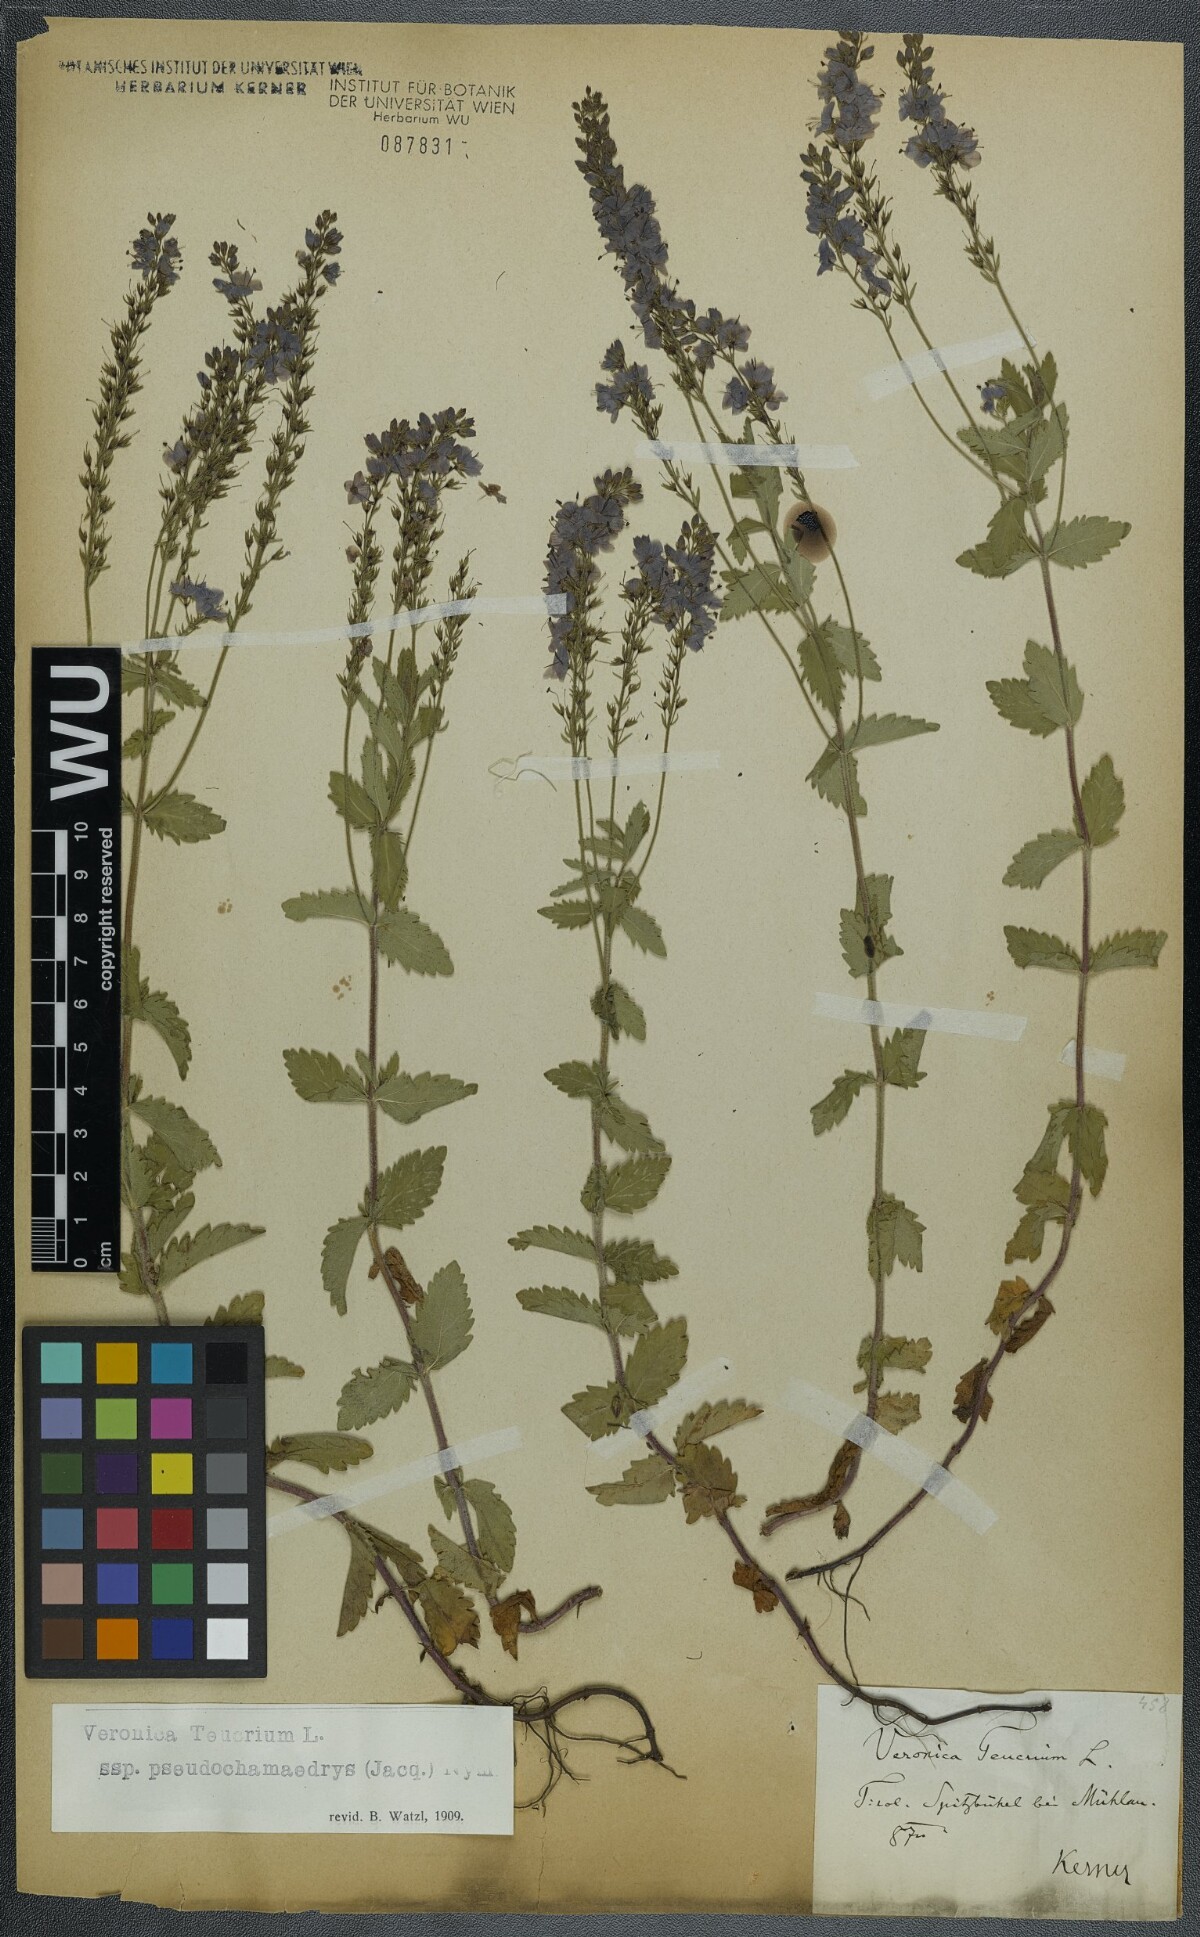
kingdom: Plantae
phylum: Tracheophyta
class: Magnoliopsida
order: Lamiales
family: Plantaginaceae
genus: Veronica
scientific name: Veronica teucrium
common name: Large speedwell
